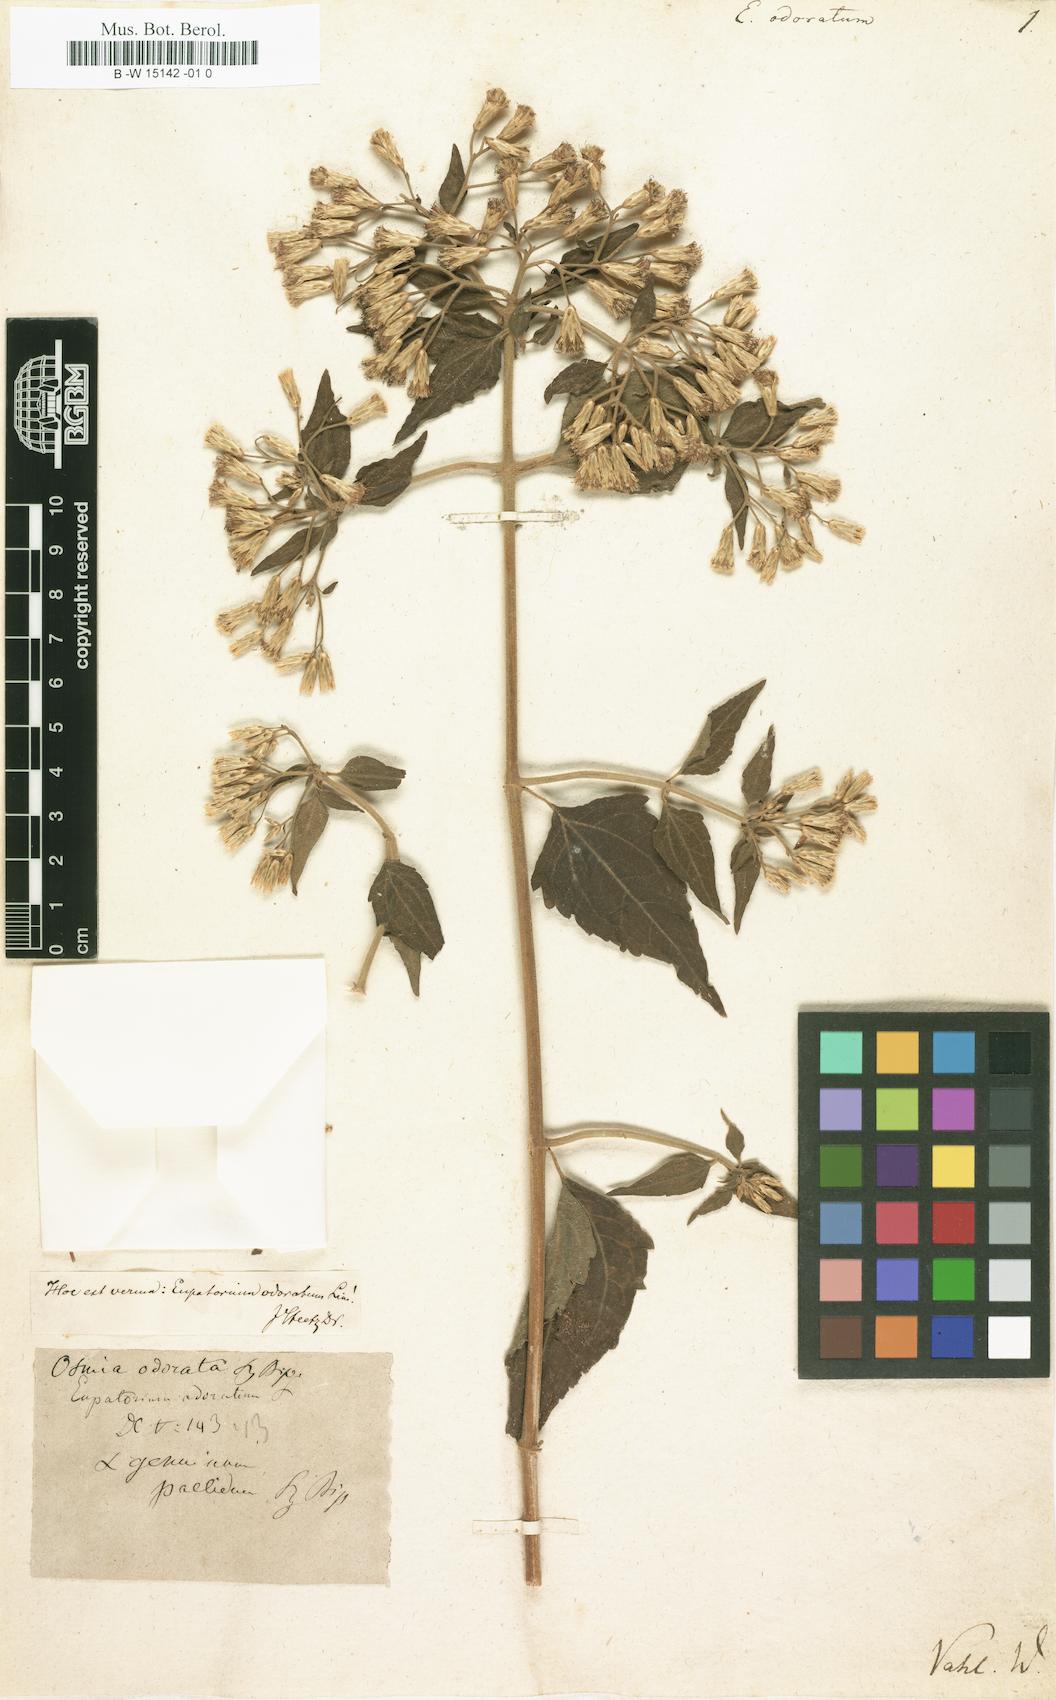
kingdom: Plantae
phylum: Tracheophyta
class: Magnoliopsida
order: Asterales
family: Asteraceae
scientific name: Asteraceae
